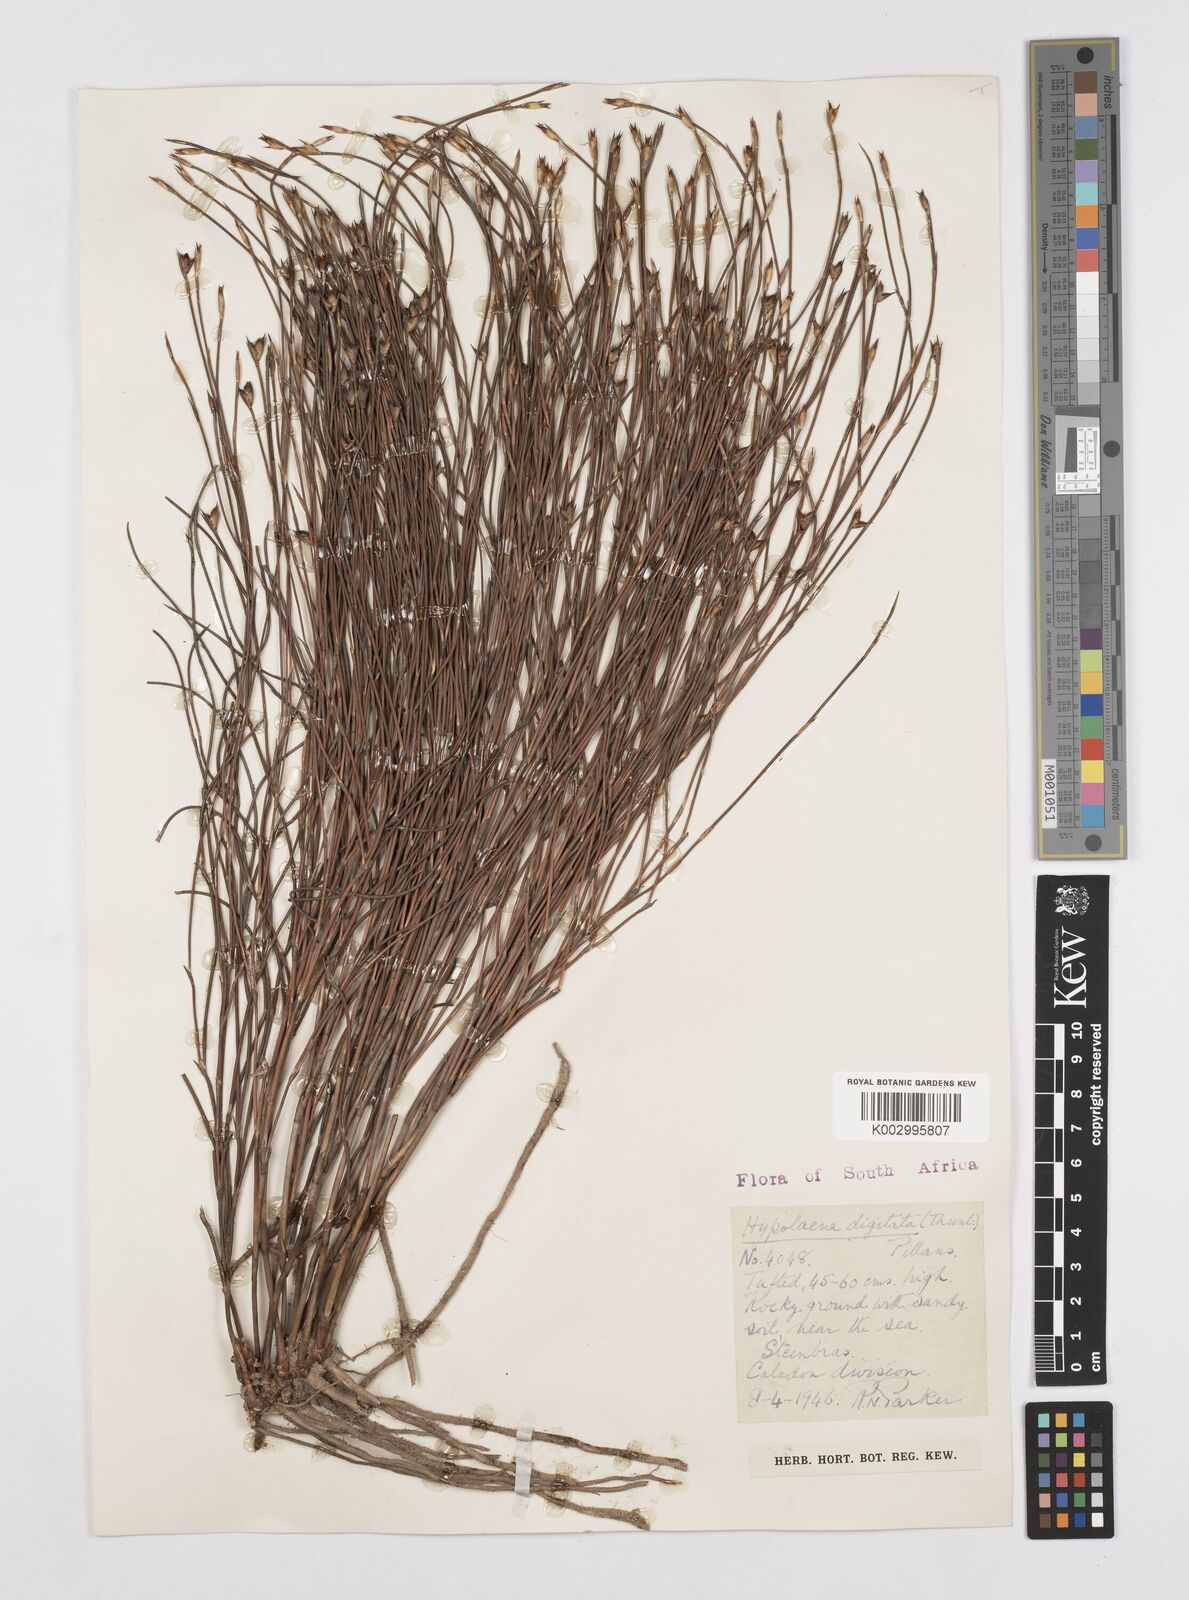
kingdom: Plantae
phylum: Tracheophyta
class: Liliopsida
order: Poales
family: Restionaceae
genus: Mastersiella
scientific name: Mastersiella digitata
